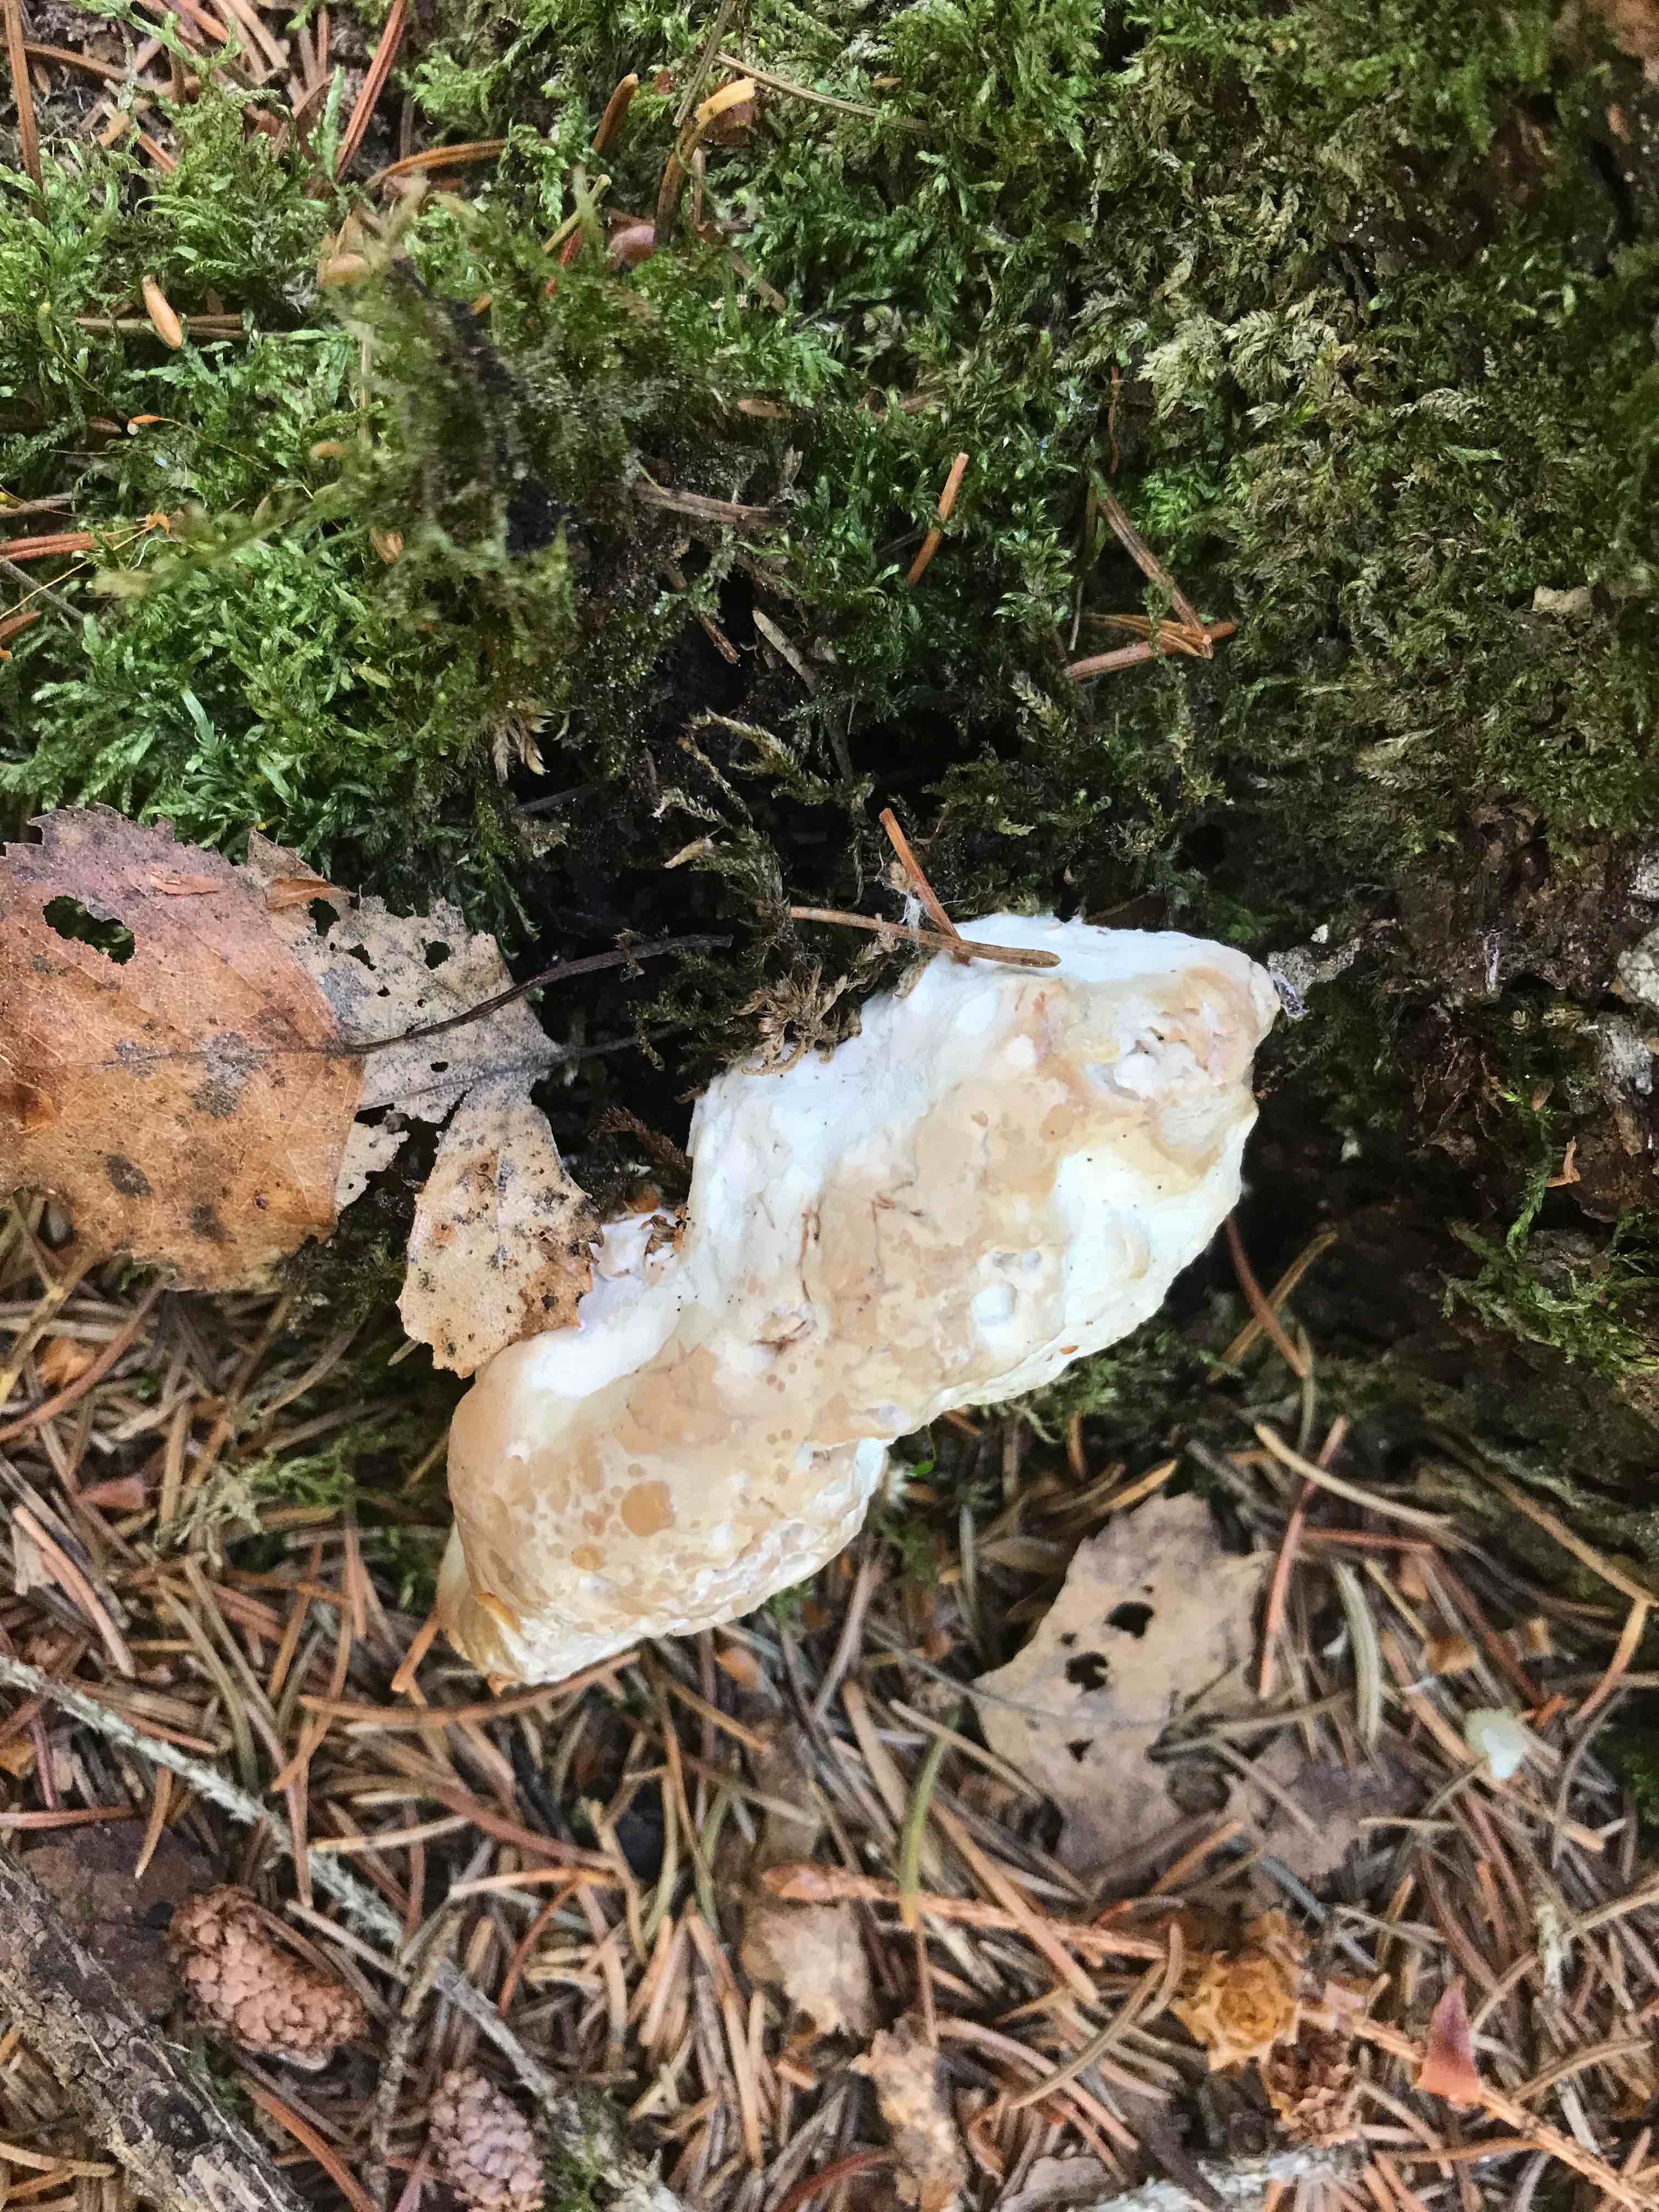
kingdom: Fungi
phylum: Basidiomycota
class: Agaricomycetes
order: Polyporales
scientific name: Polyporales
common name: poresvampordenen
